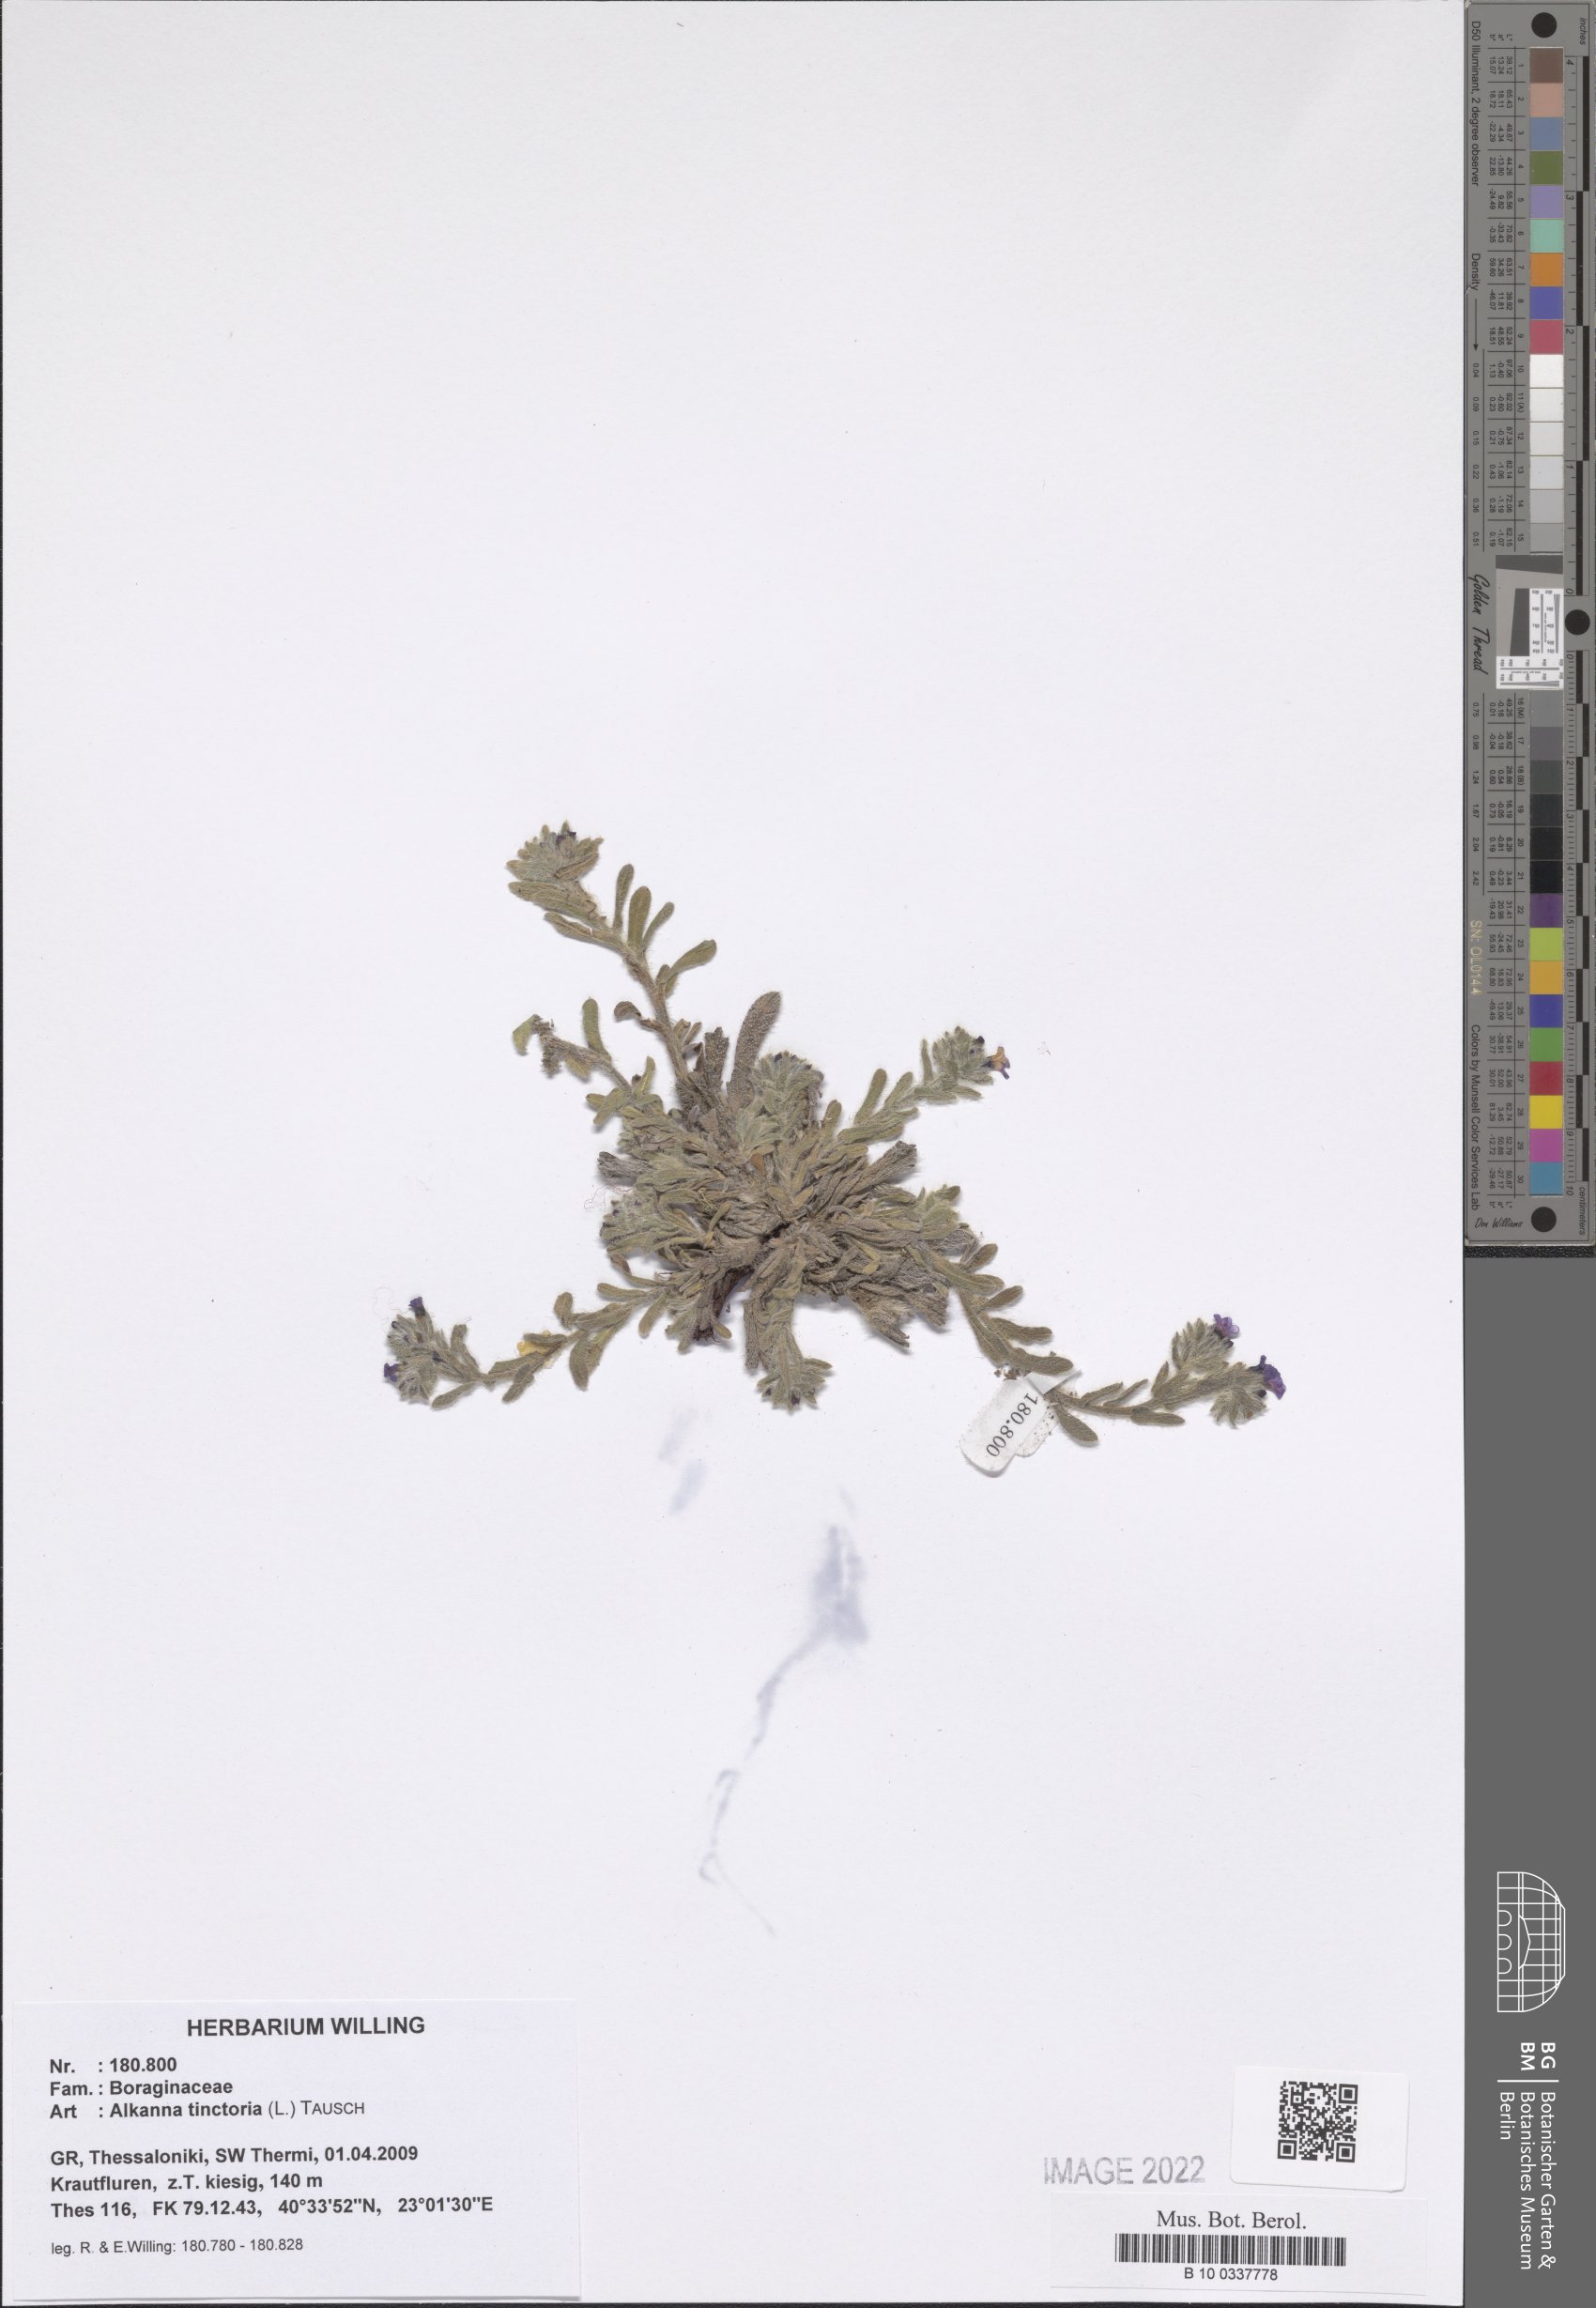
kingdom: Plantae
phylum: Tracheophyta
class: Magnoliopsida
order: Boraginales
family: Boraginaceae
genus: Alkanna
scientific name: Alkanna tinctoria
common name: Dyer's-alkanet
